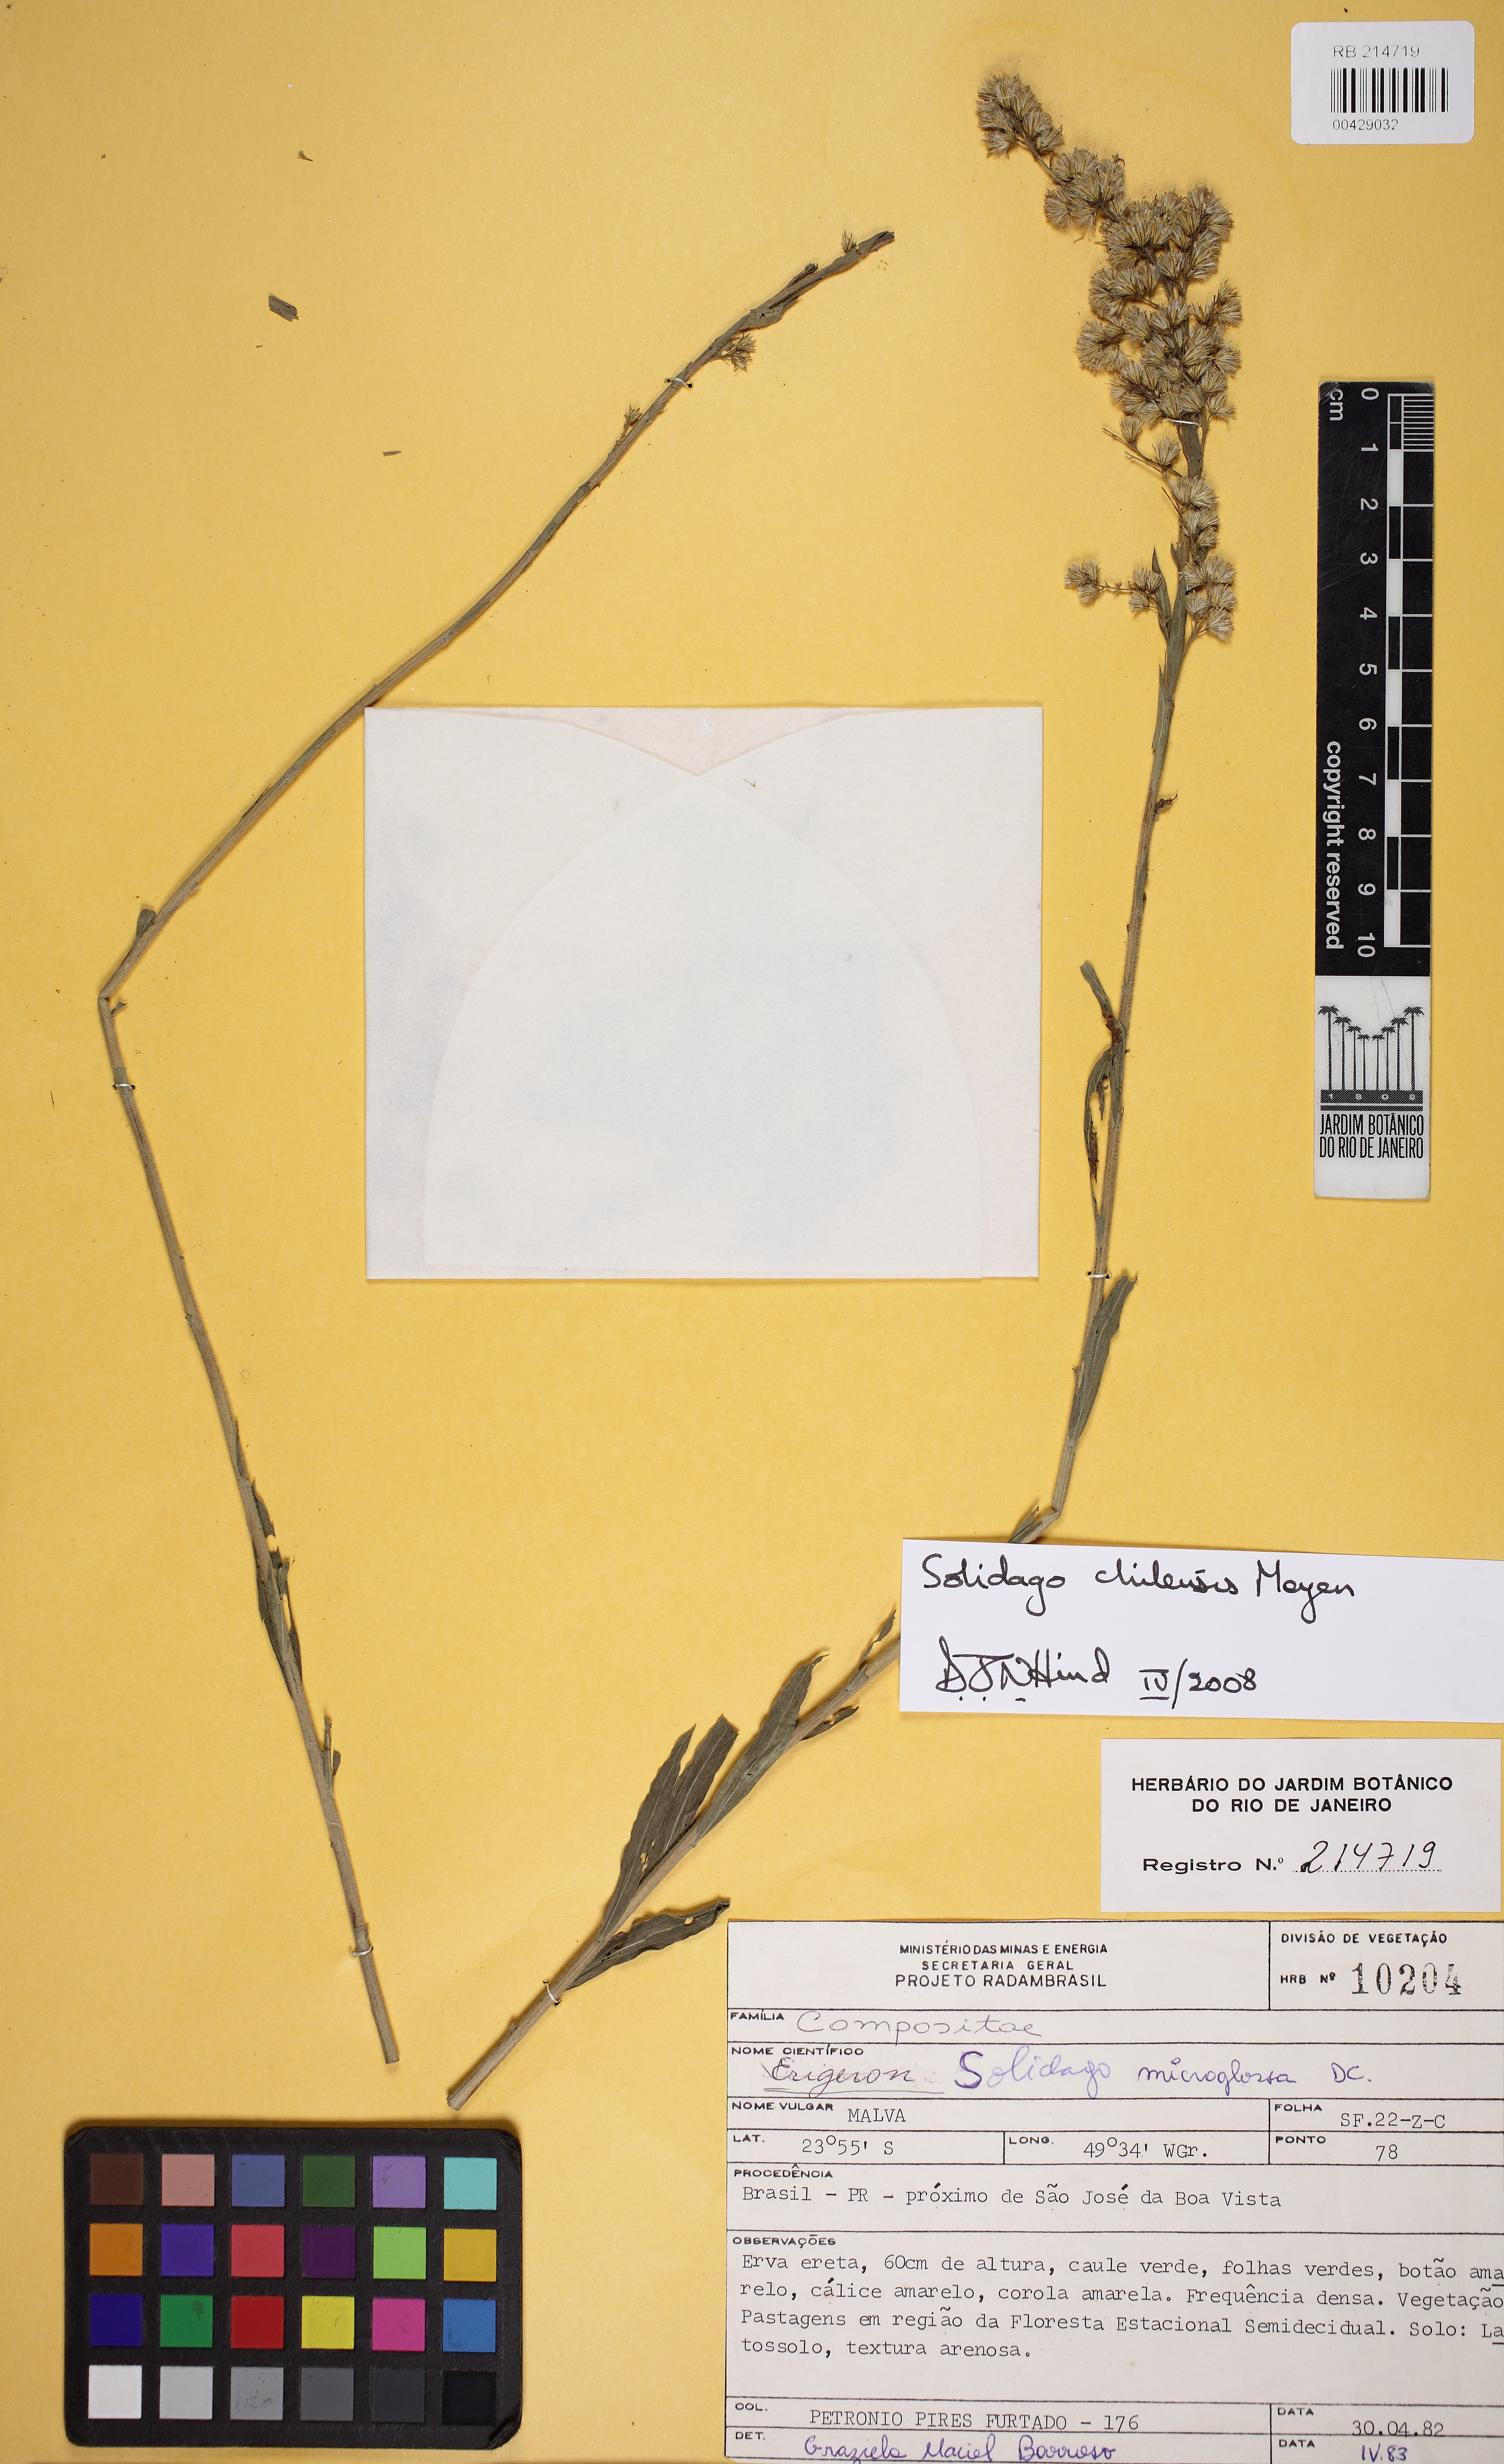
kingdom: Plantae
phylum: Tracheophyta
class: Magnoliopsida
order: Asterales
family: Asteraceae
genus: Solidago
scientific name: Solidago chilensis
